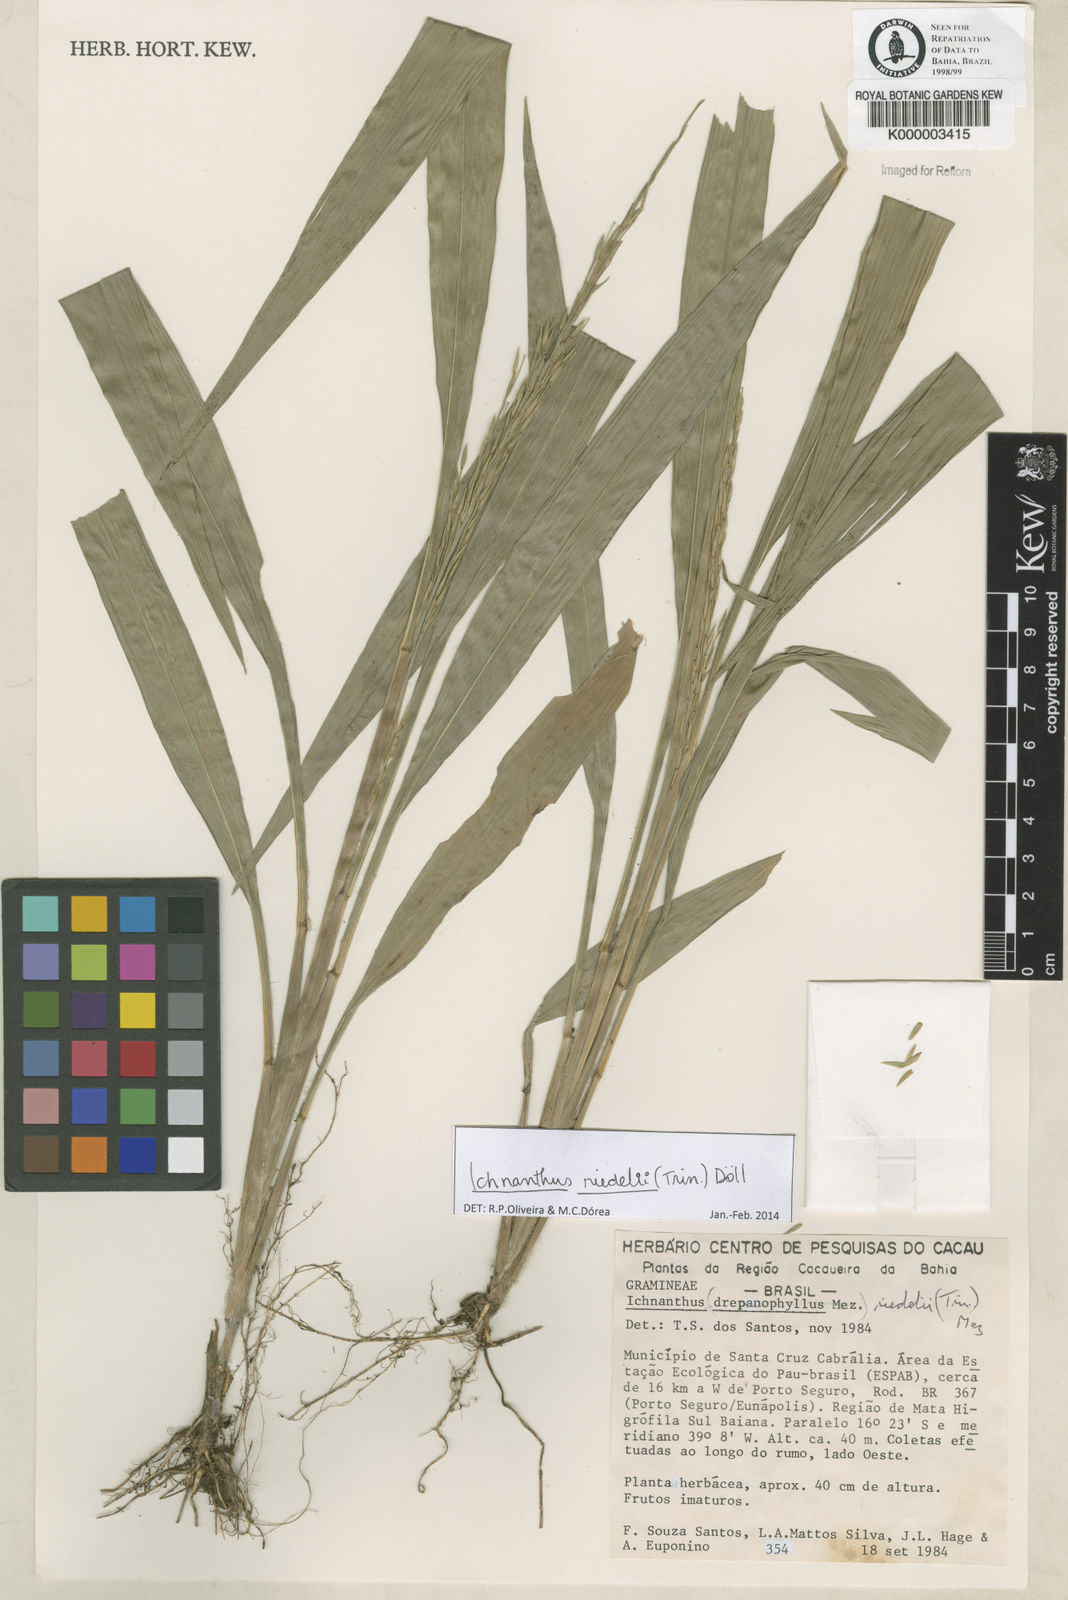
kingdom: Plantae
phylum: Tracheophyta
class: Liliopsida
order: Poales
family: Poaceae
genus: Ichnanthus
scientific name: Ichnanthus
